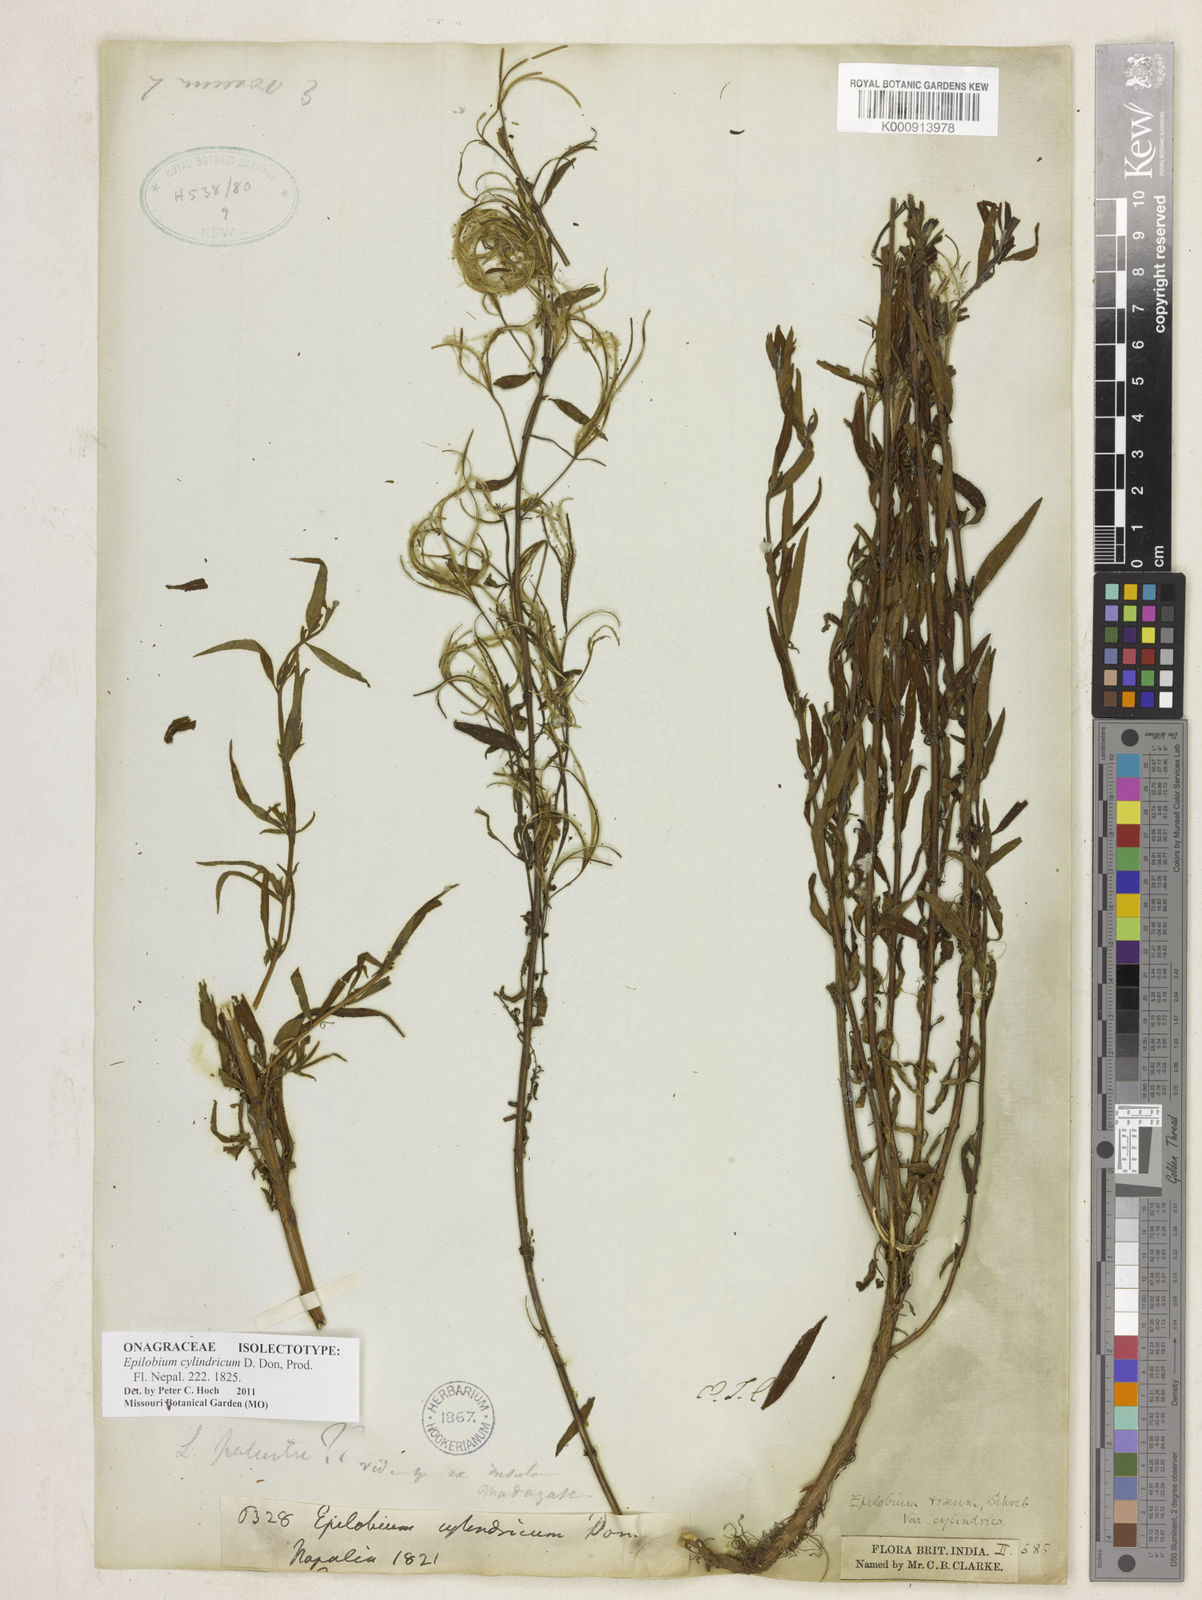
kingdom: Plantae
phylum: Tracheophyta
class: Magnoliopsida
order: Myrtales
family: Onagraceae
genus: Epilobium
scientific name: Epilobium cylindricum
